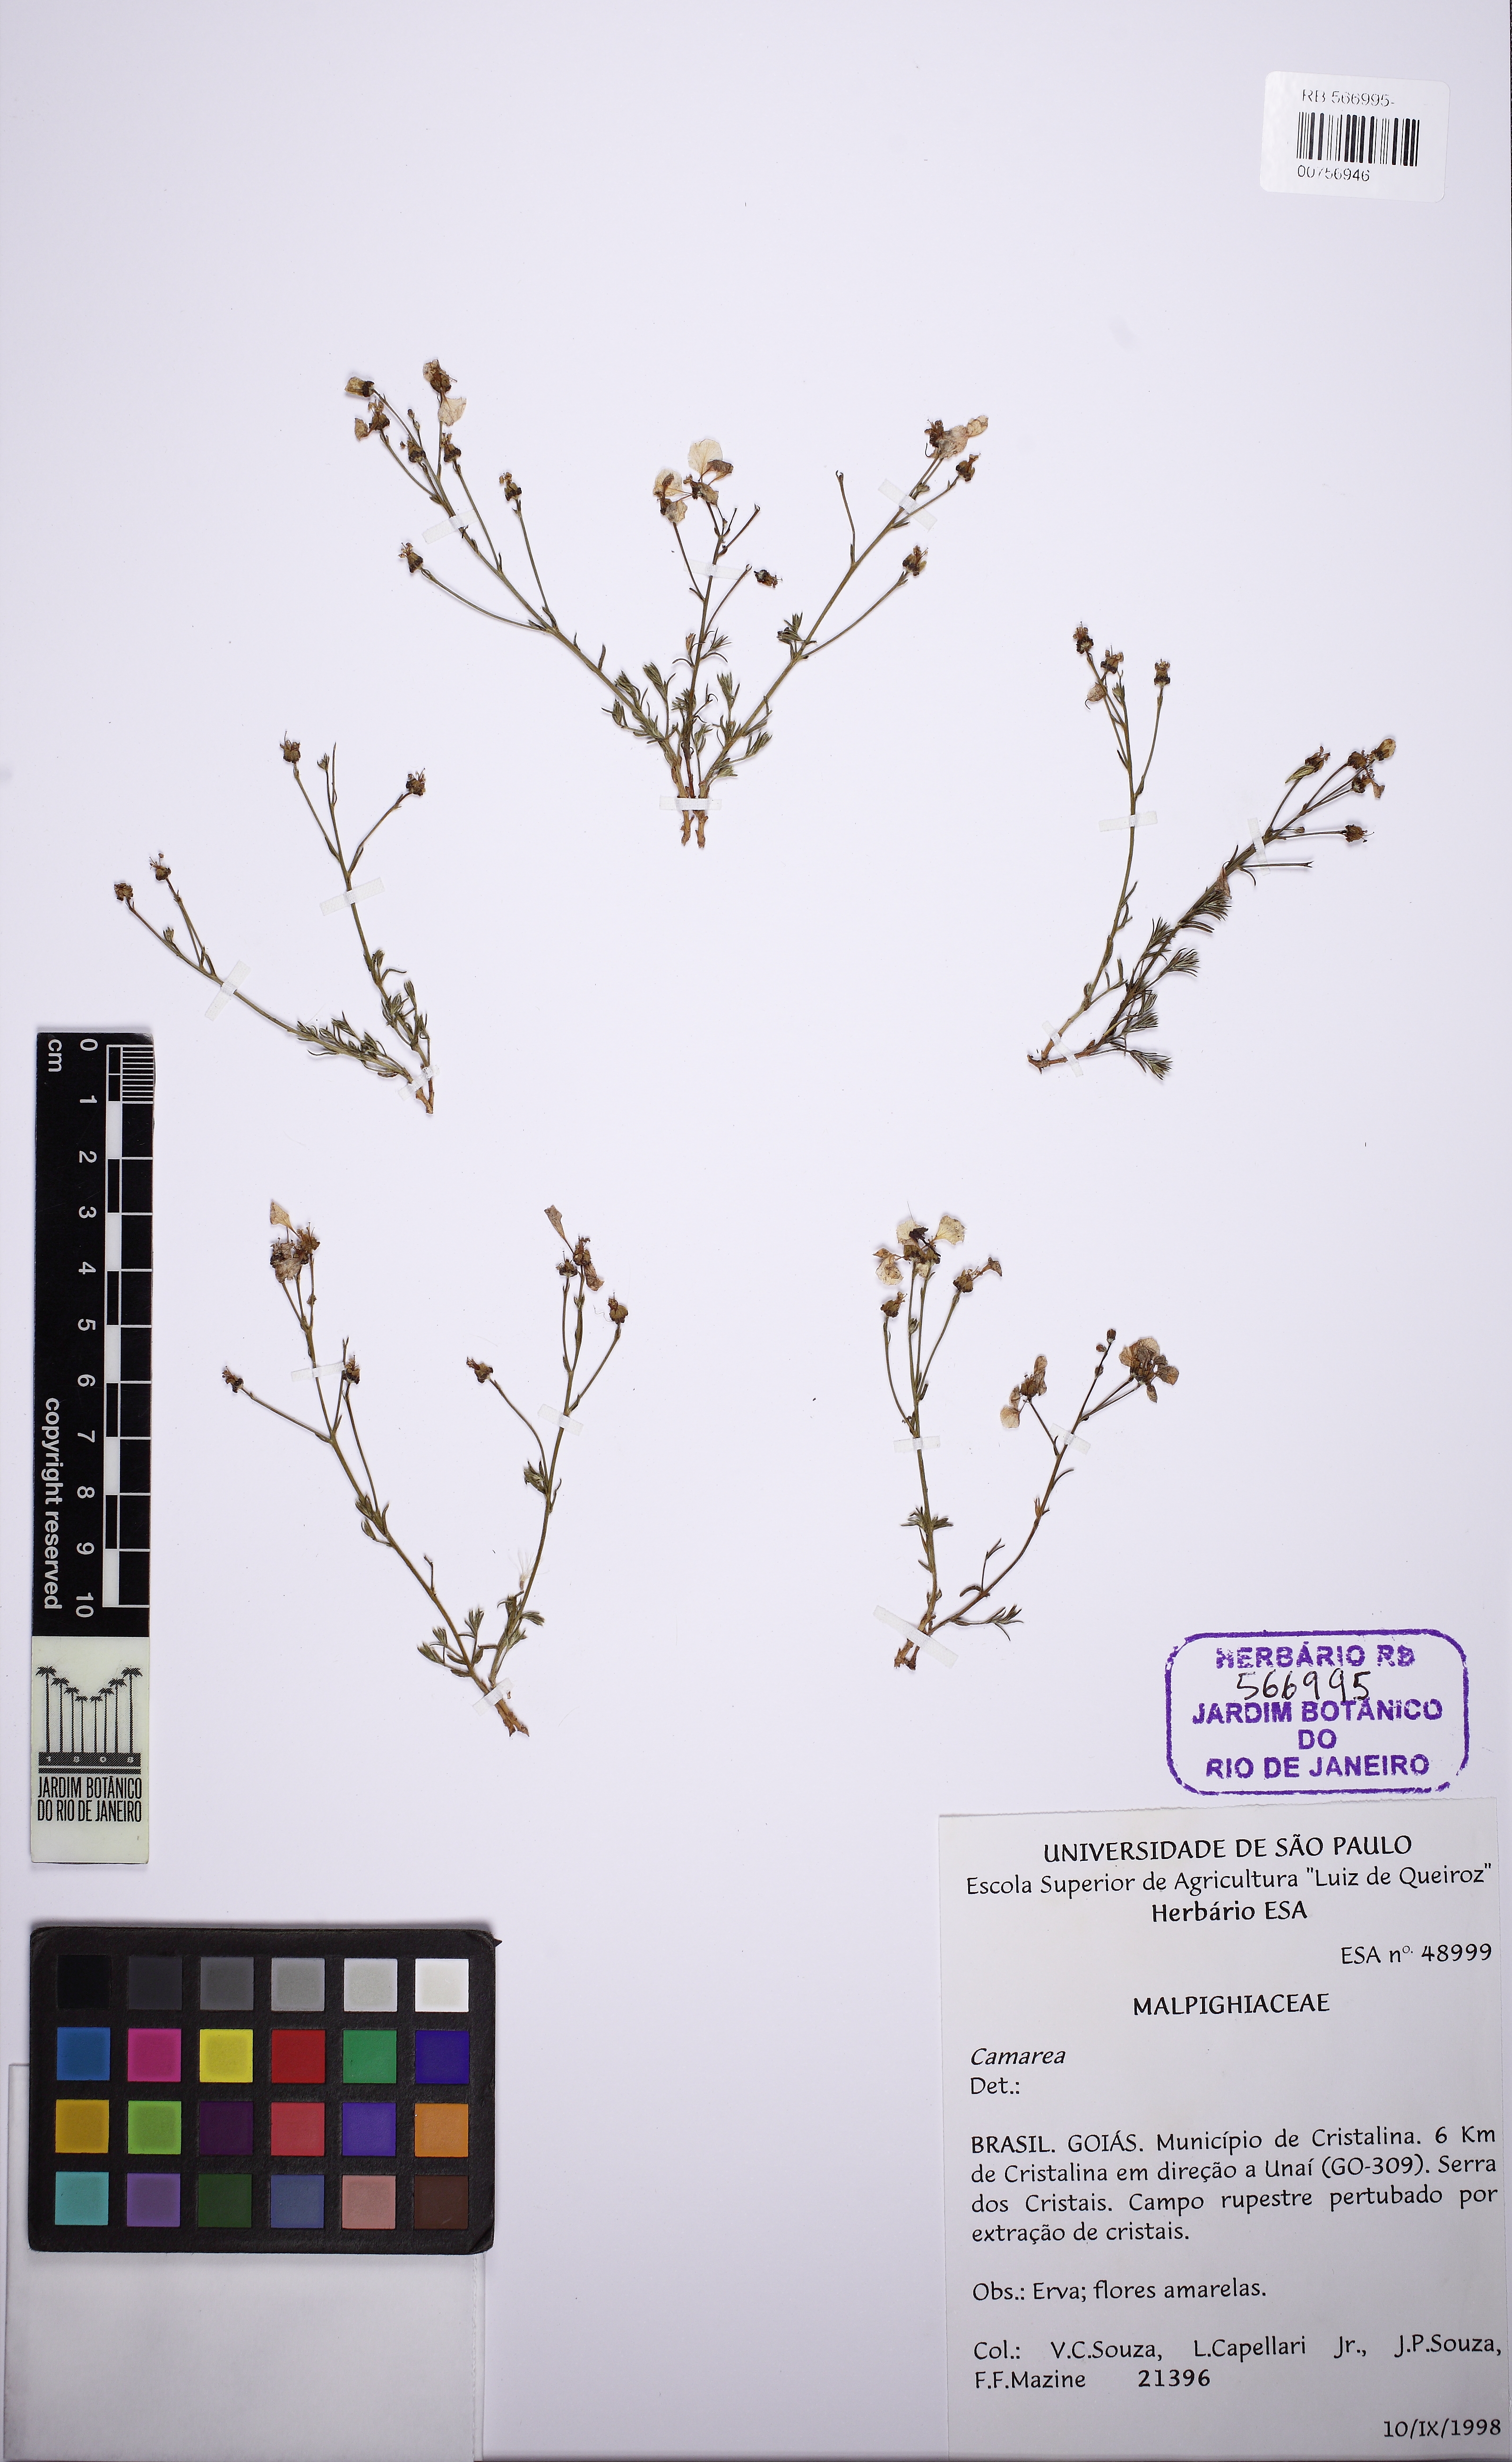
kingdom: Plantae
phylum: Tracheophyta
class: Magnoliopsida
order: Malpighiales
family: Malpighiaceae
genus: Camarea
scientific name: Camarea ericoides
